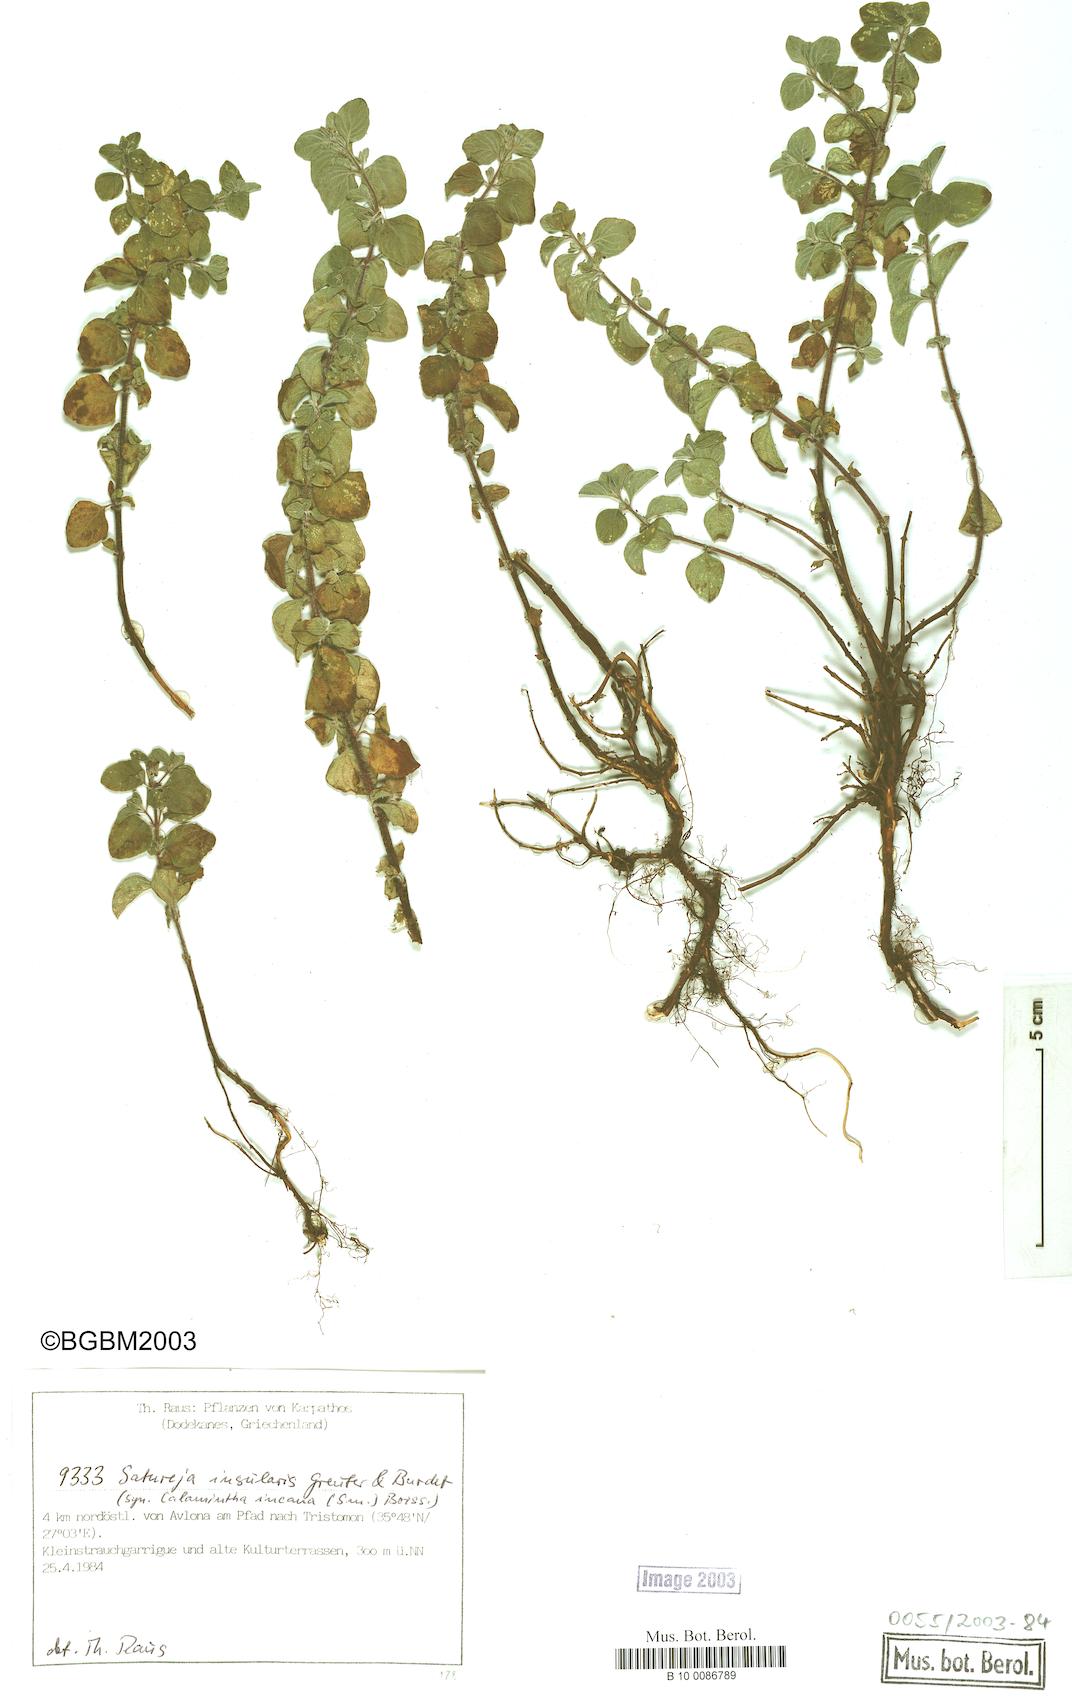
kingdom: Plantae
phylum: Tracheophyta
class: Magnoliopsida
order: Lamiales
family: Lamiaceae
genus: Clinopodium
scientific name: Clinopodium brevifolium
